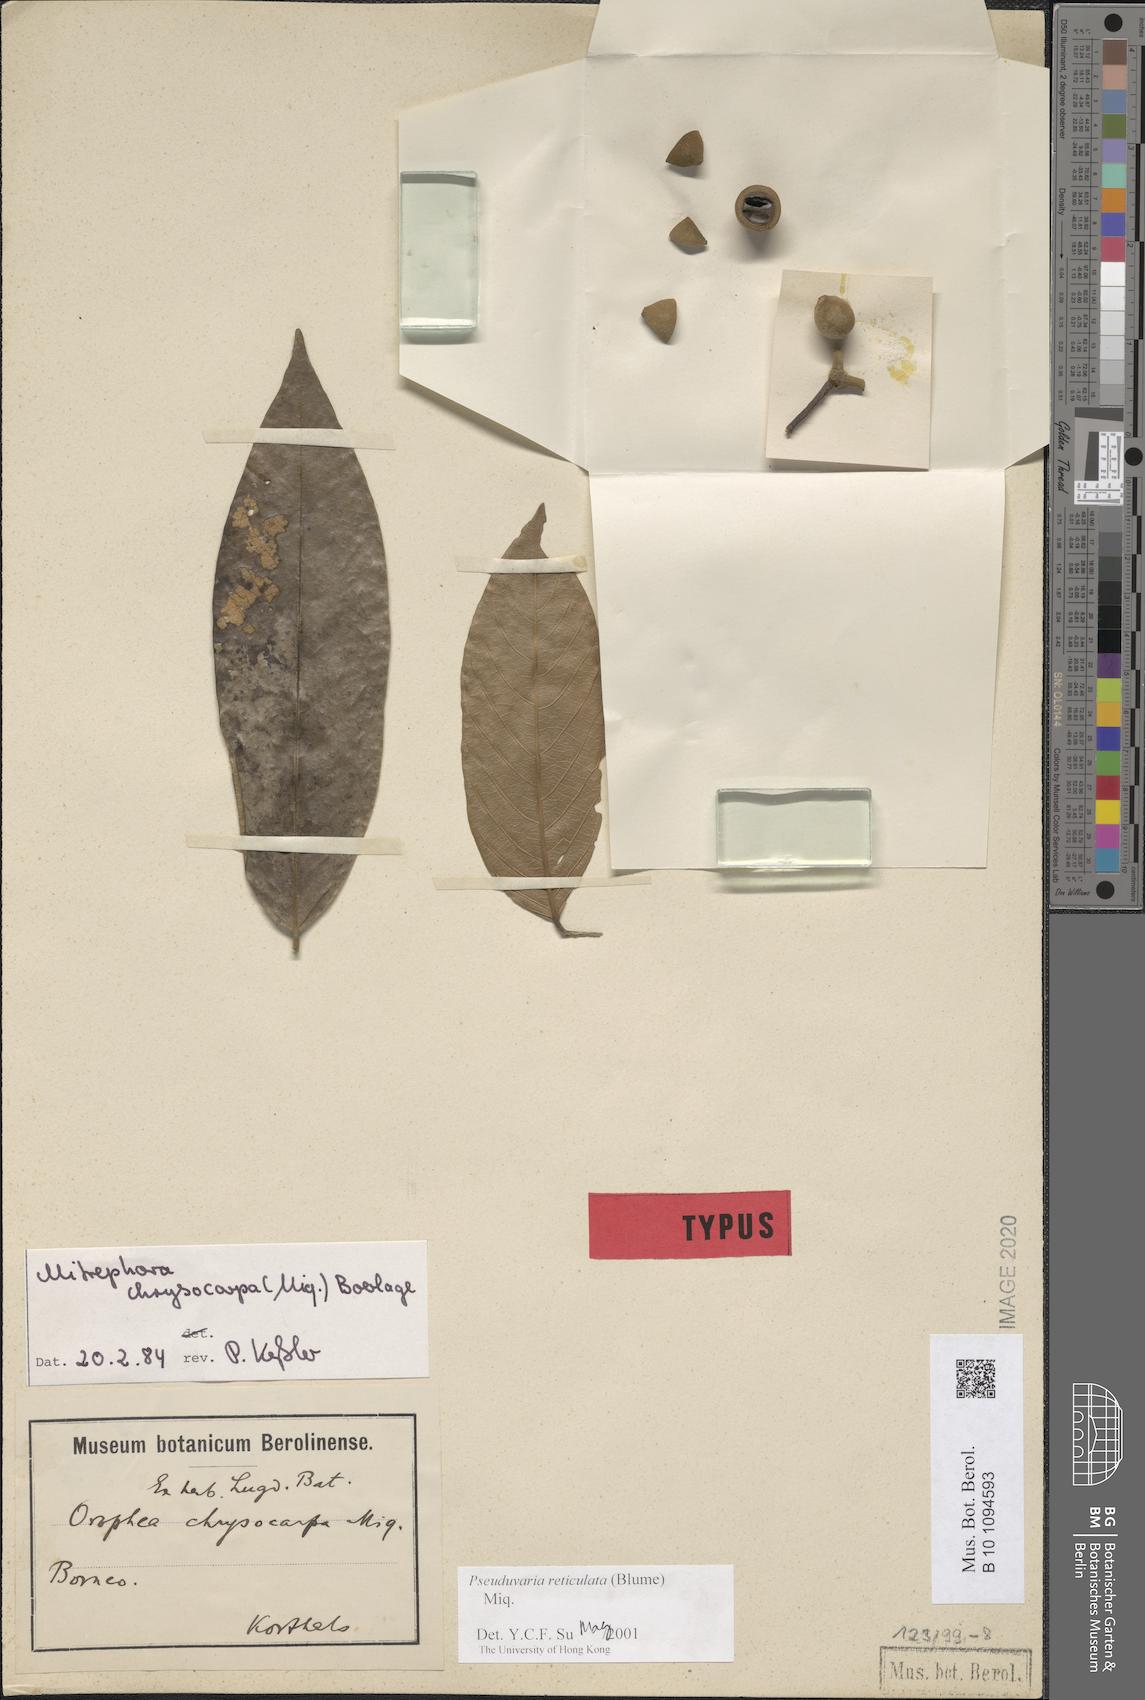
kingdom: Plantae
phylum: Tracheophyta
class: Magnoliopsida
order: Magnoliales
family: Annonaceae
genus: Pseuduvaria
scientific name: Pseuduvaria reticulata
